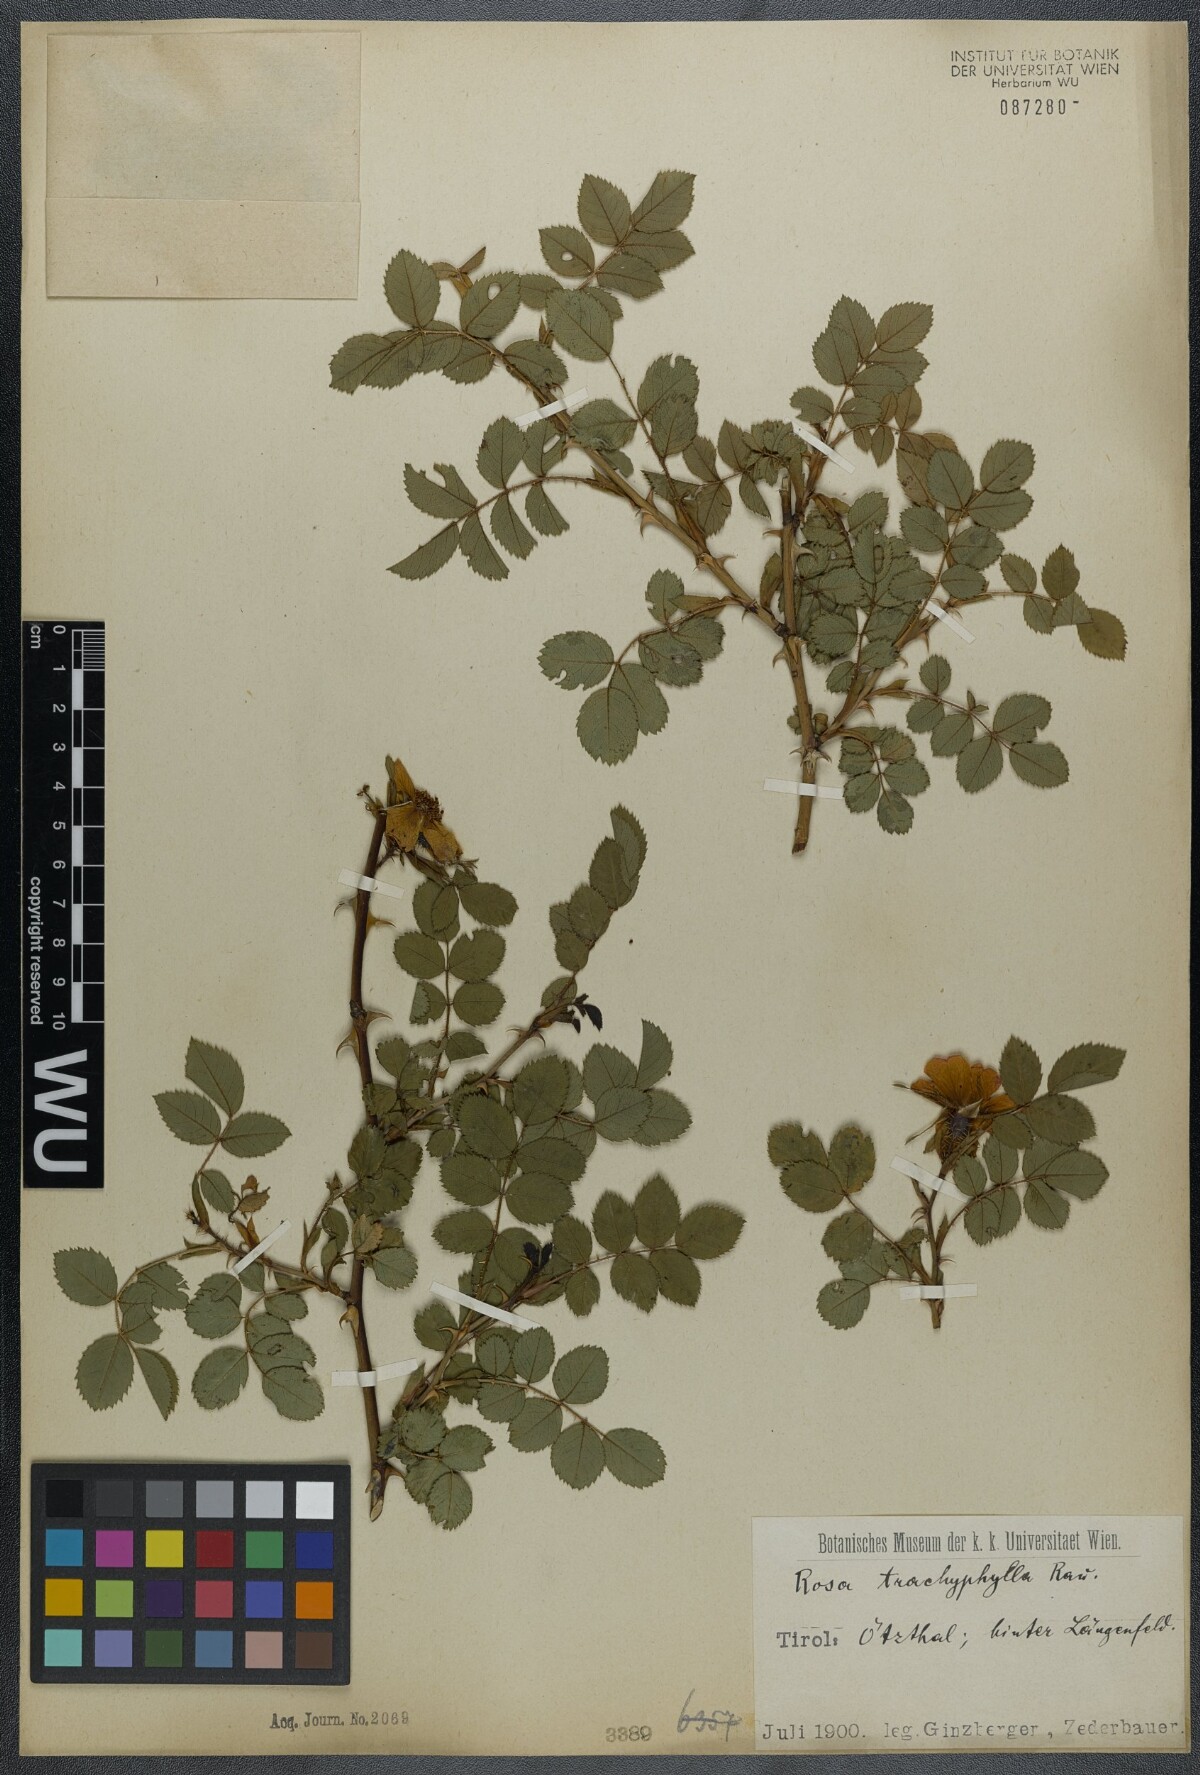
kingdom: Plantae
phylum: Tracheophyta
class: Magnoliopsida
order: Rosales
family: Rosaceae
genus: Rosa
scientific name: Rosa marginata
